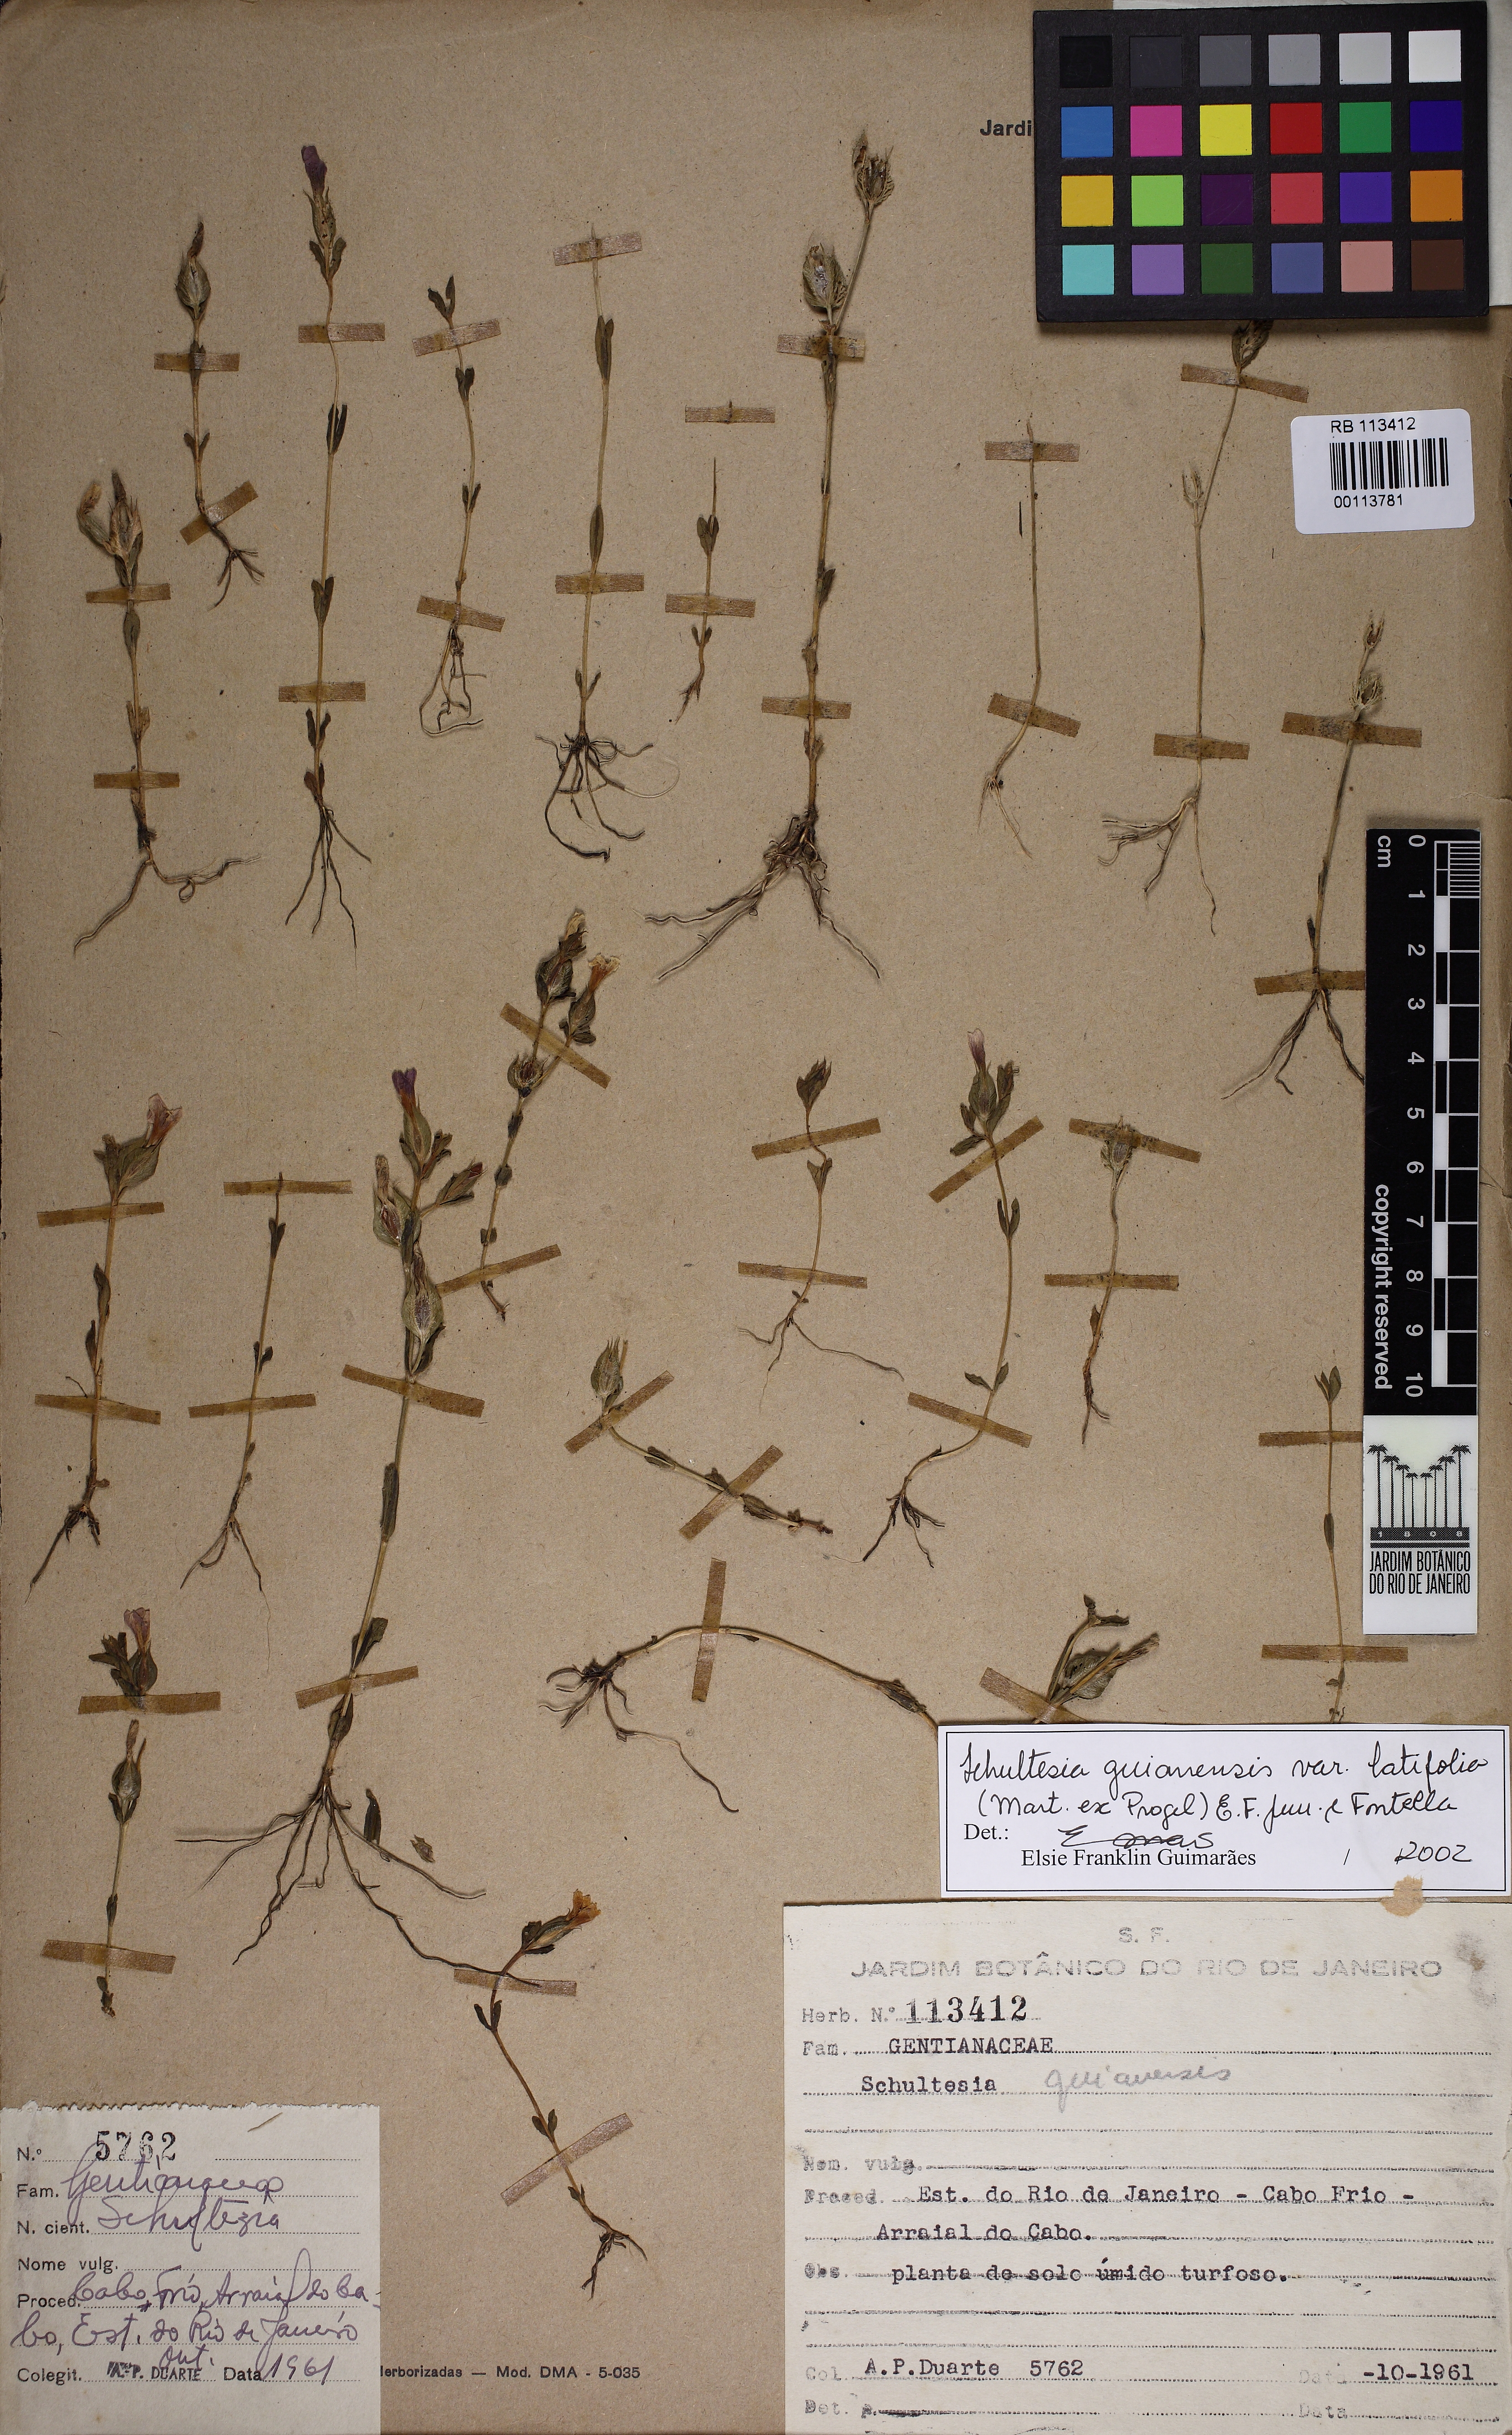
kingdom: Plantae
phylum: Tracheophyta
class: Magnoliopsida
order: Gentianales
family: Gentianaceae
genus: Schultesia
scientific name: Schultesia guianensis
